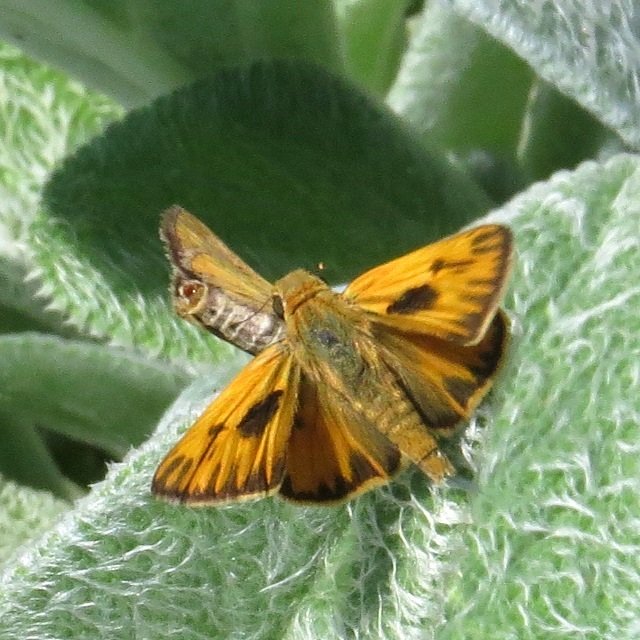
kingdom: Animalia
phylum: Arthropoda
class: Insecta
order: Lepidoptera
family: Hesperiidae
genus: Hylephila
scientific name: Hylephila phyleus
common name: Fiery Skipper
